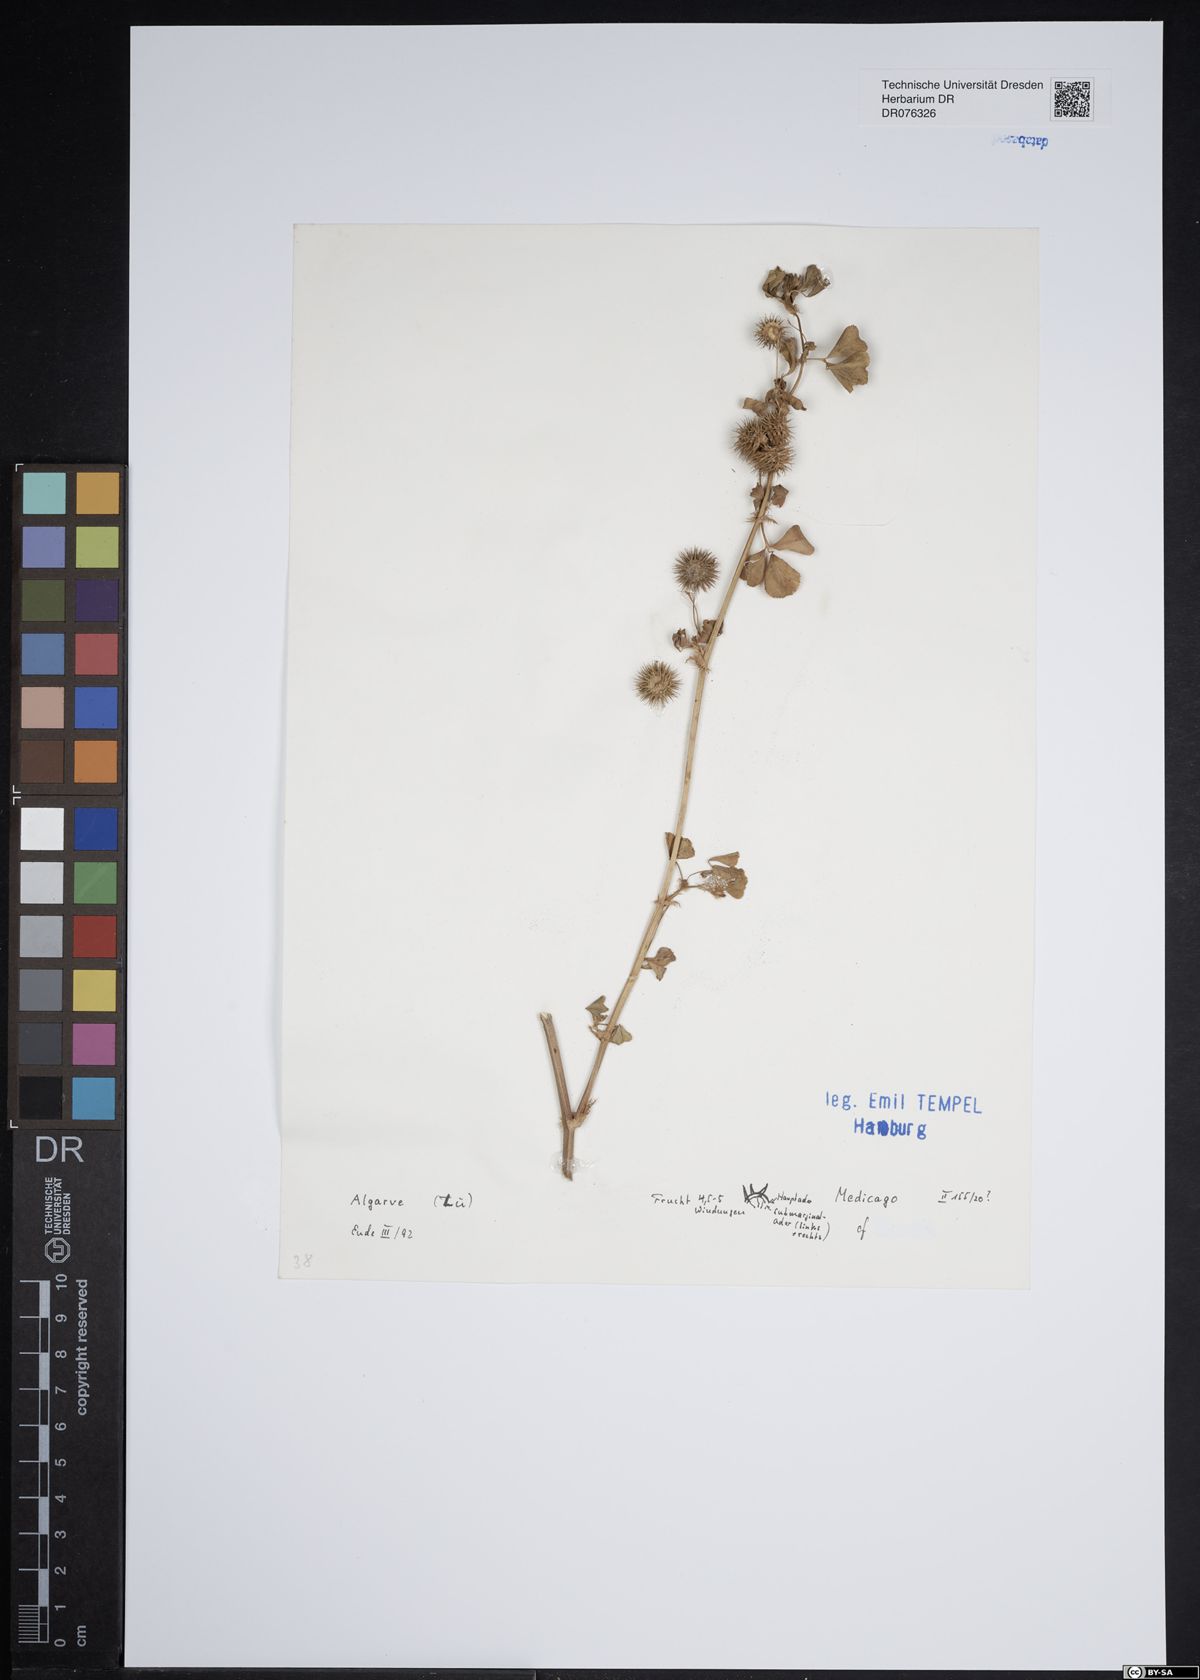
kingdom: Plantae
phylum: Tracheophyta
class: Magnoliopsida
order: Fabales
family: Fabaceae
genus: Medicago
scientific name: Medicago
